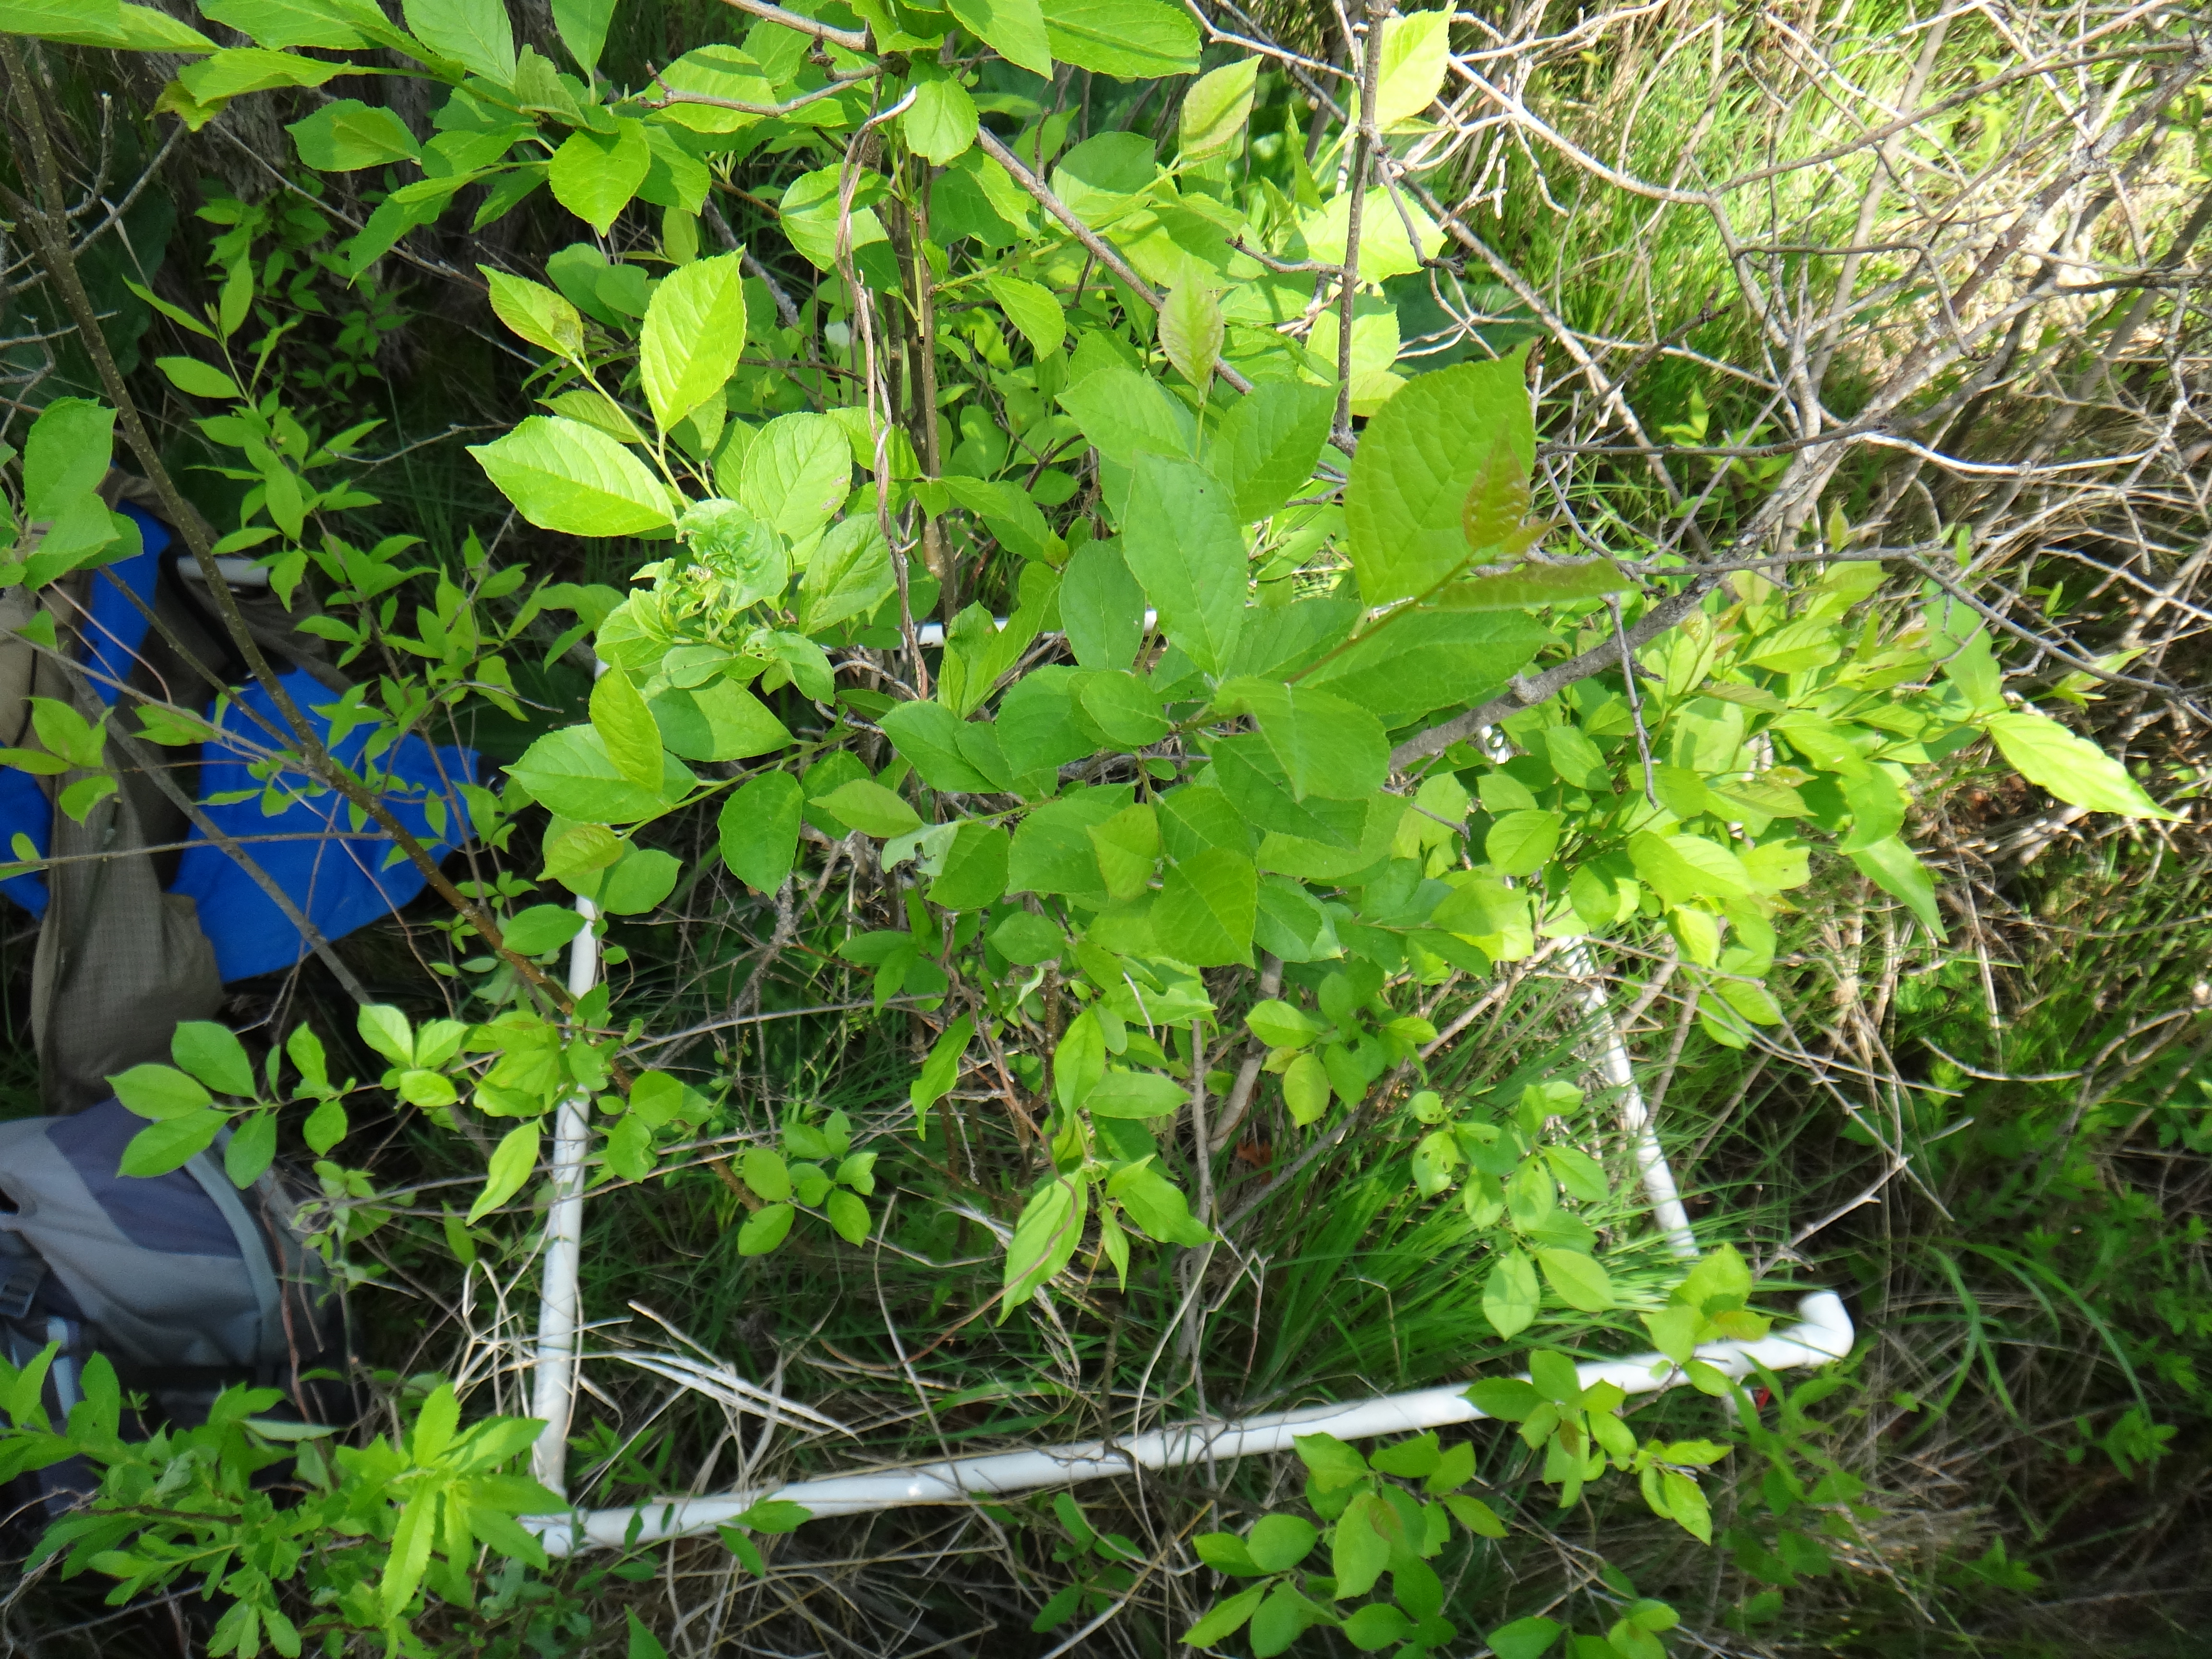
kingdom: Plantae
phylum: Tracheophyta
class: Liliopsida
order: Poales
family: Cyperaceae
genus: Carex
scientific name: Carex lasiocarpa
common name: Slender sedge
